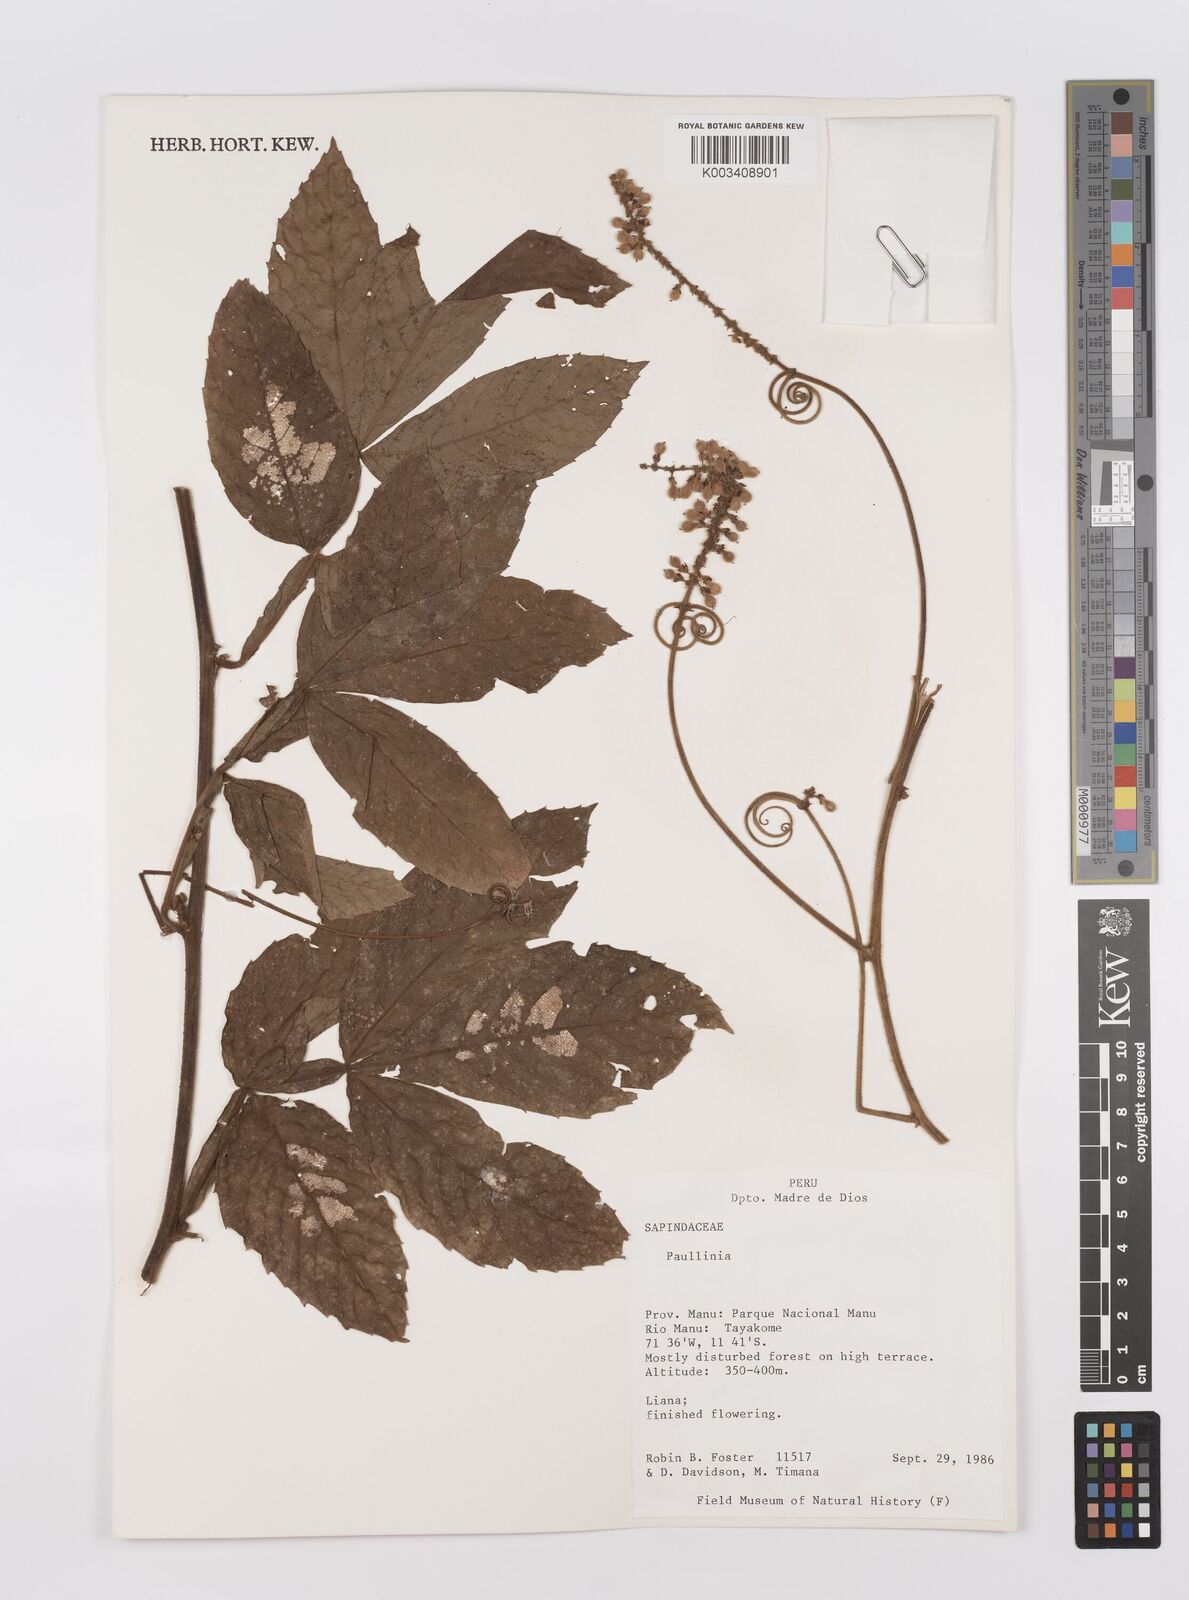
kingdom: Plantae
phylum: Tracheophyta
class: Magnoliopsida
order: Sapindales
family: Sapindaceae
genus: Paullinia
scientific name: Paullinia
